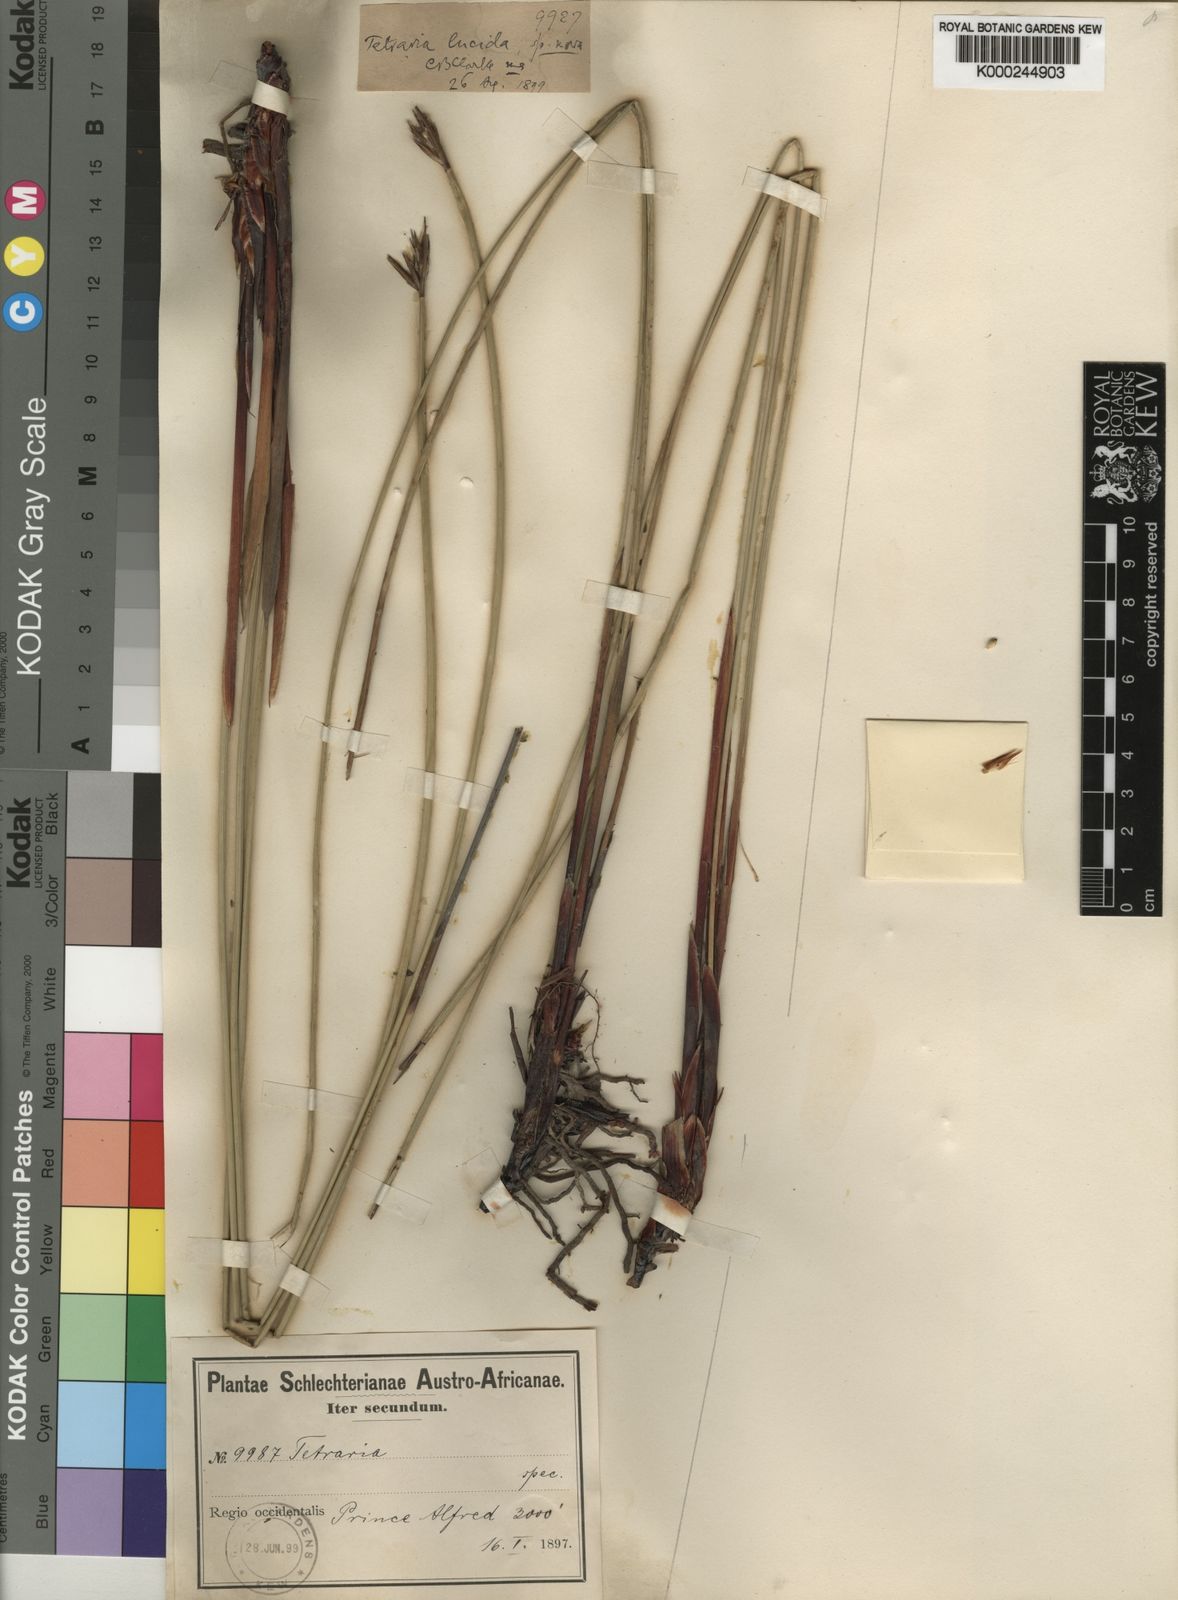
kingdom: Plantae
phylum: Tracheophyta
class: Liliopsida
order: Poales
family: Cyperaceae
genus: Schoenus
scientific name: Schoenus lucidus
